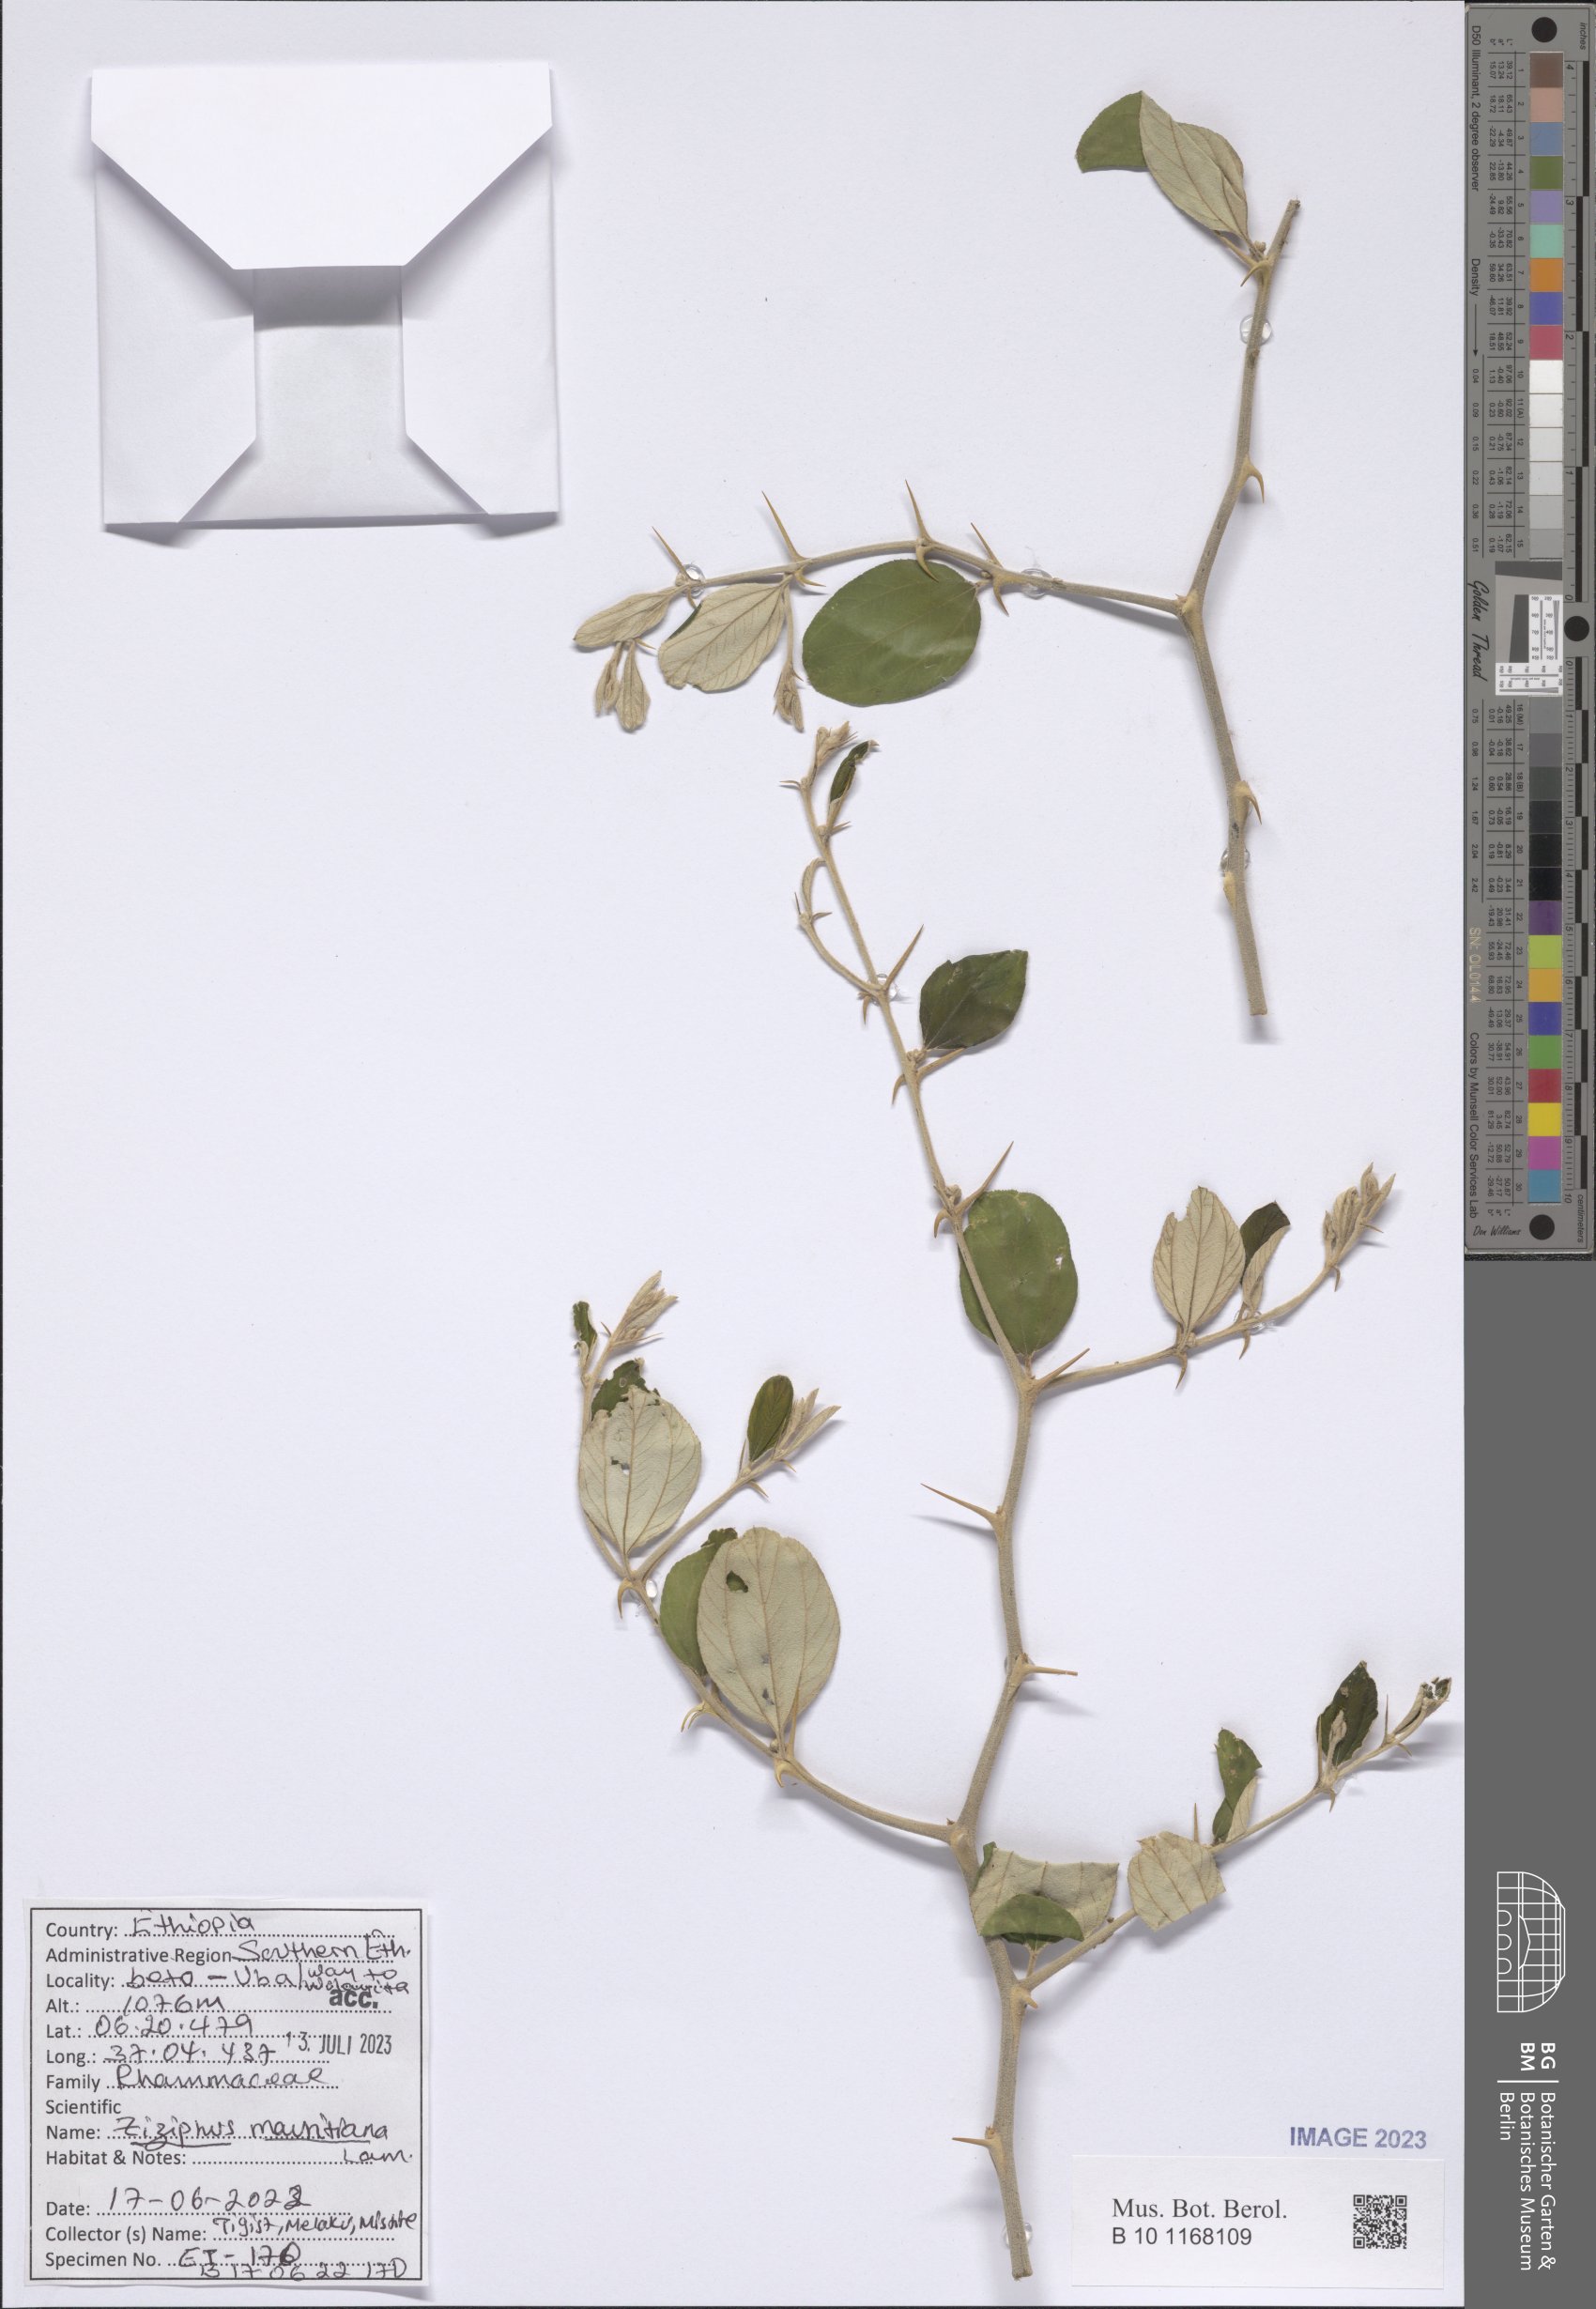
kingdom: Plantae
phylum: Tracheophyta
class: Magnoliopsida
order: Rosales
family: Rhamnaceae
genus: Ziziphus
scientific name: Ziziphus mauritiana
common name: Indian jujube
